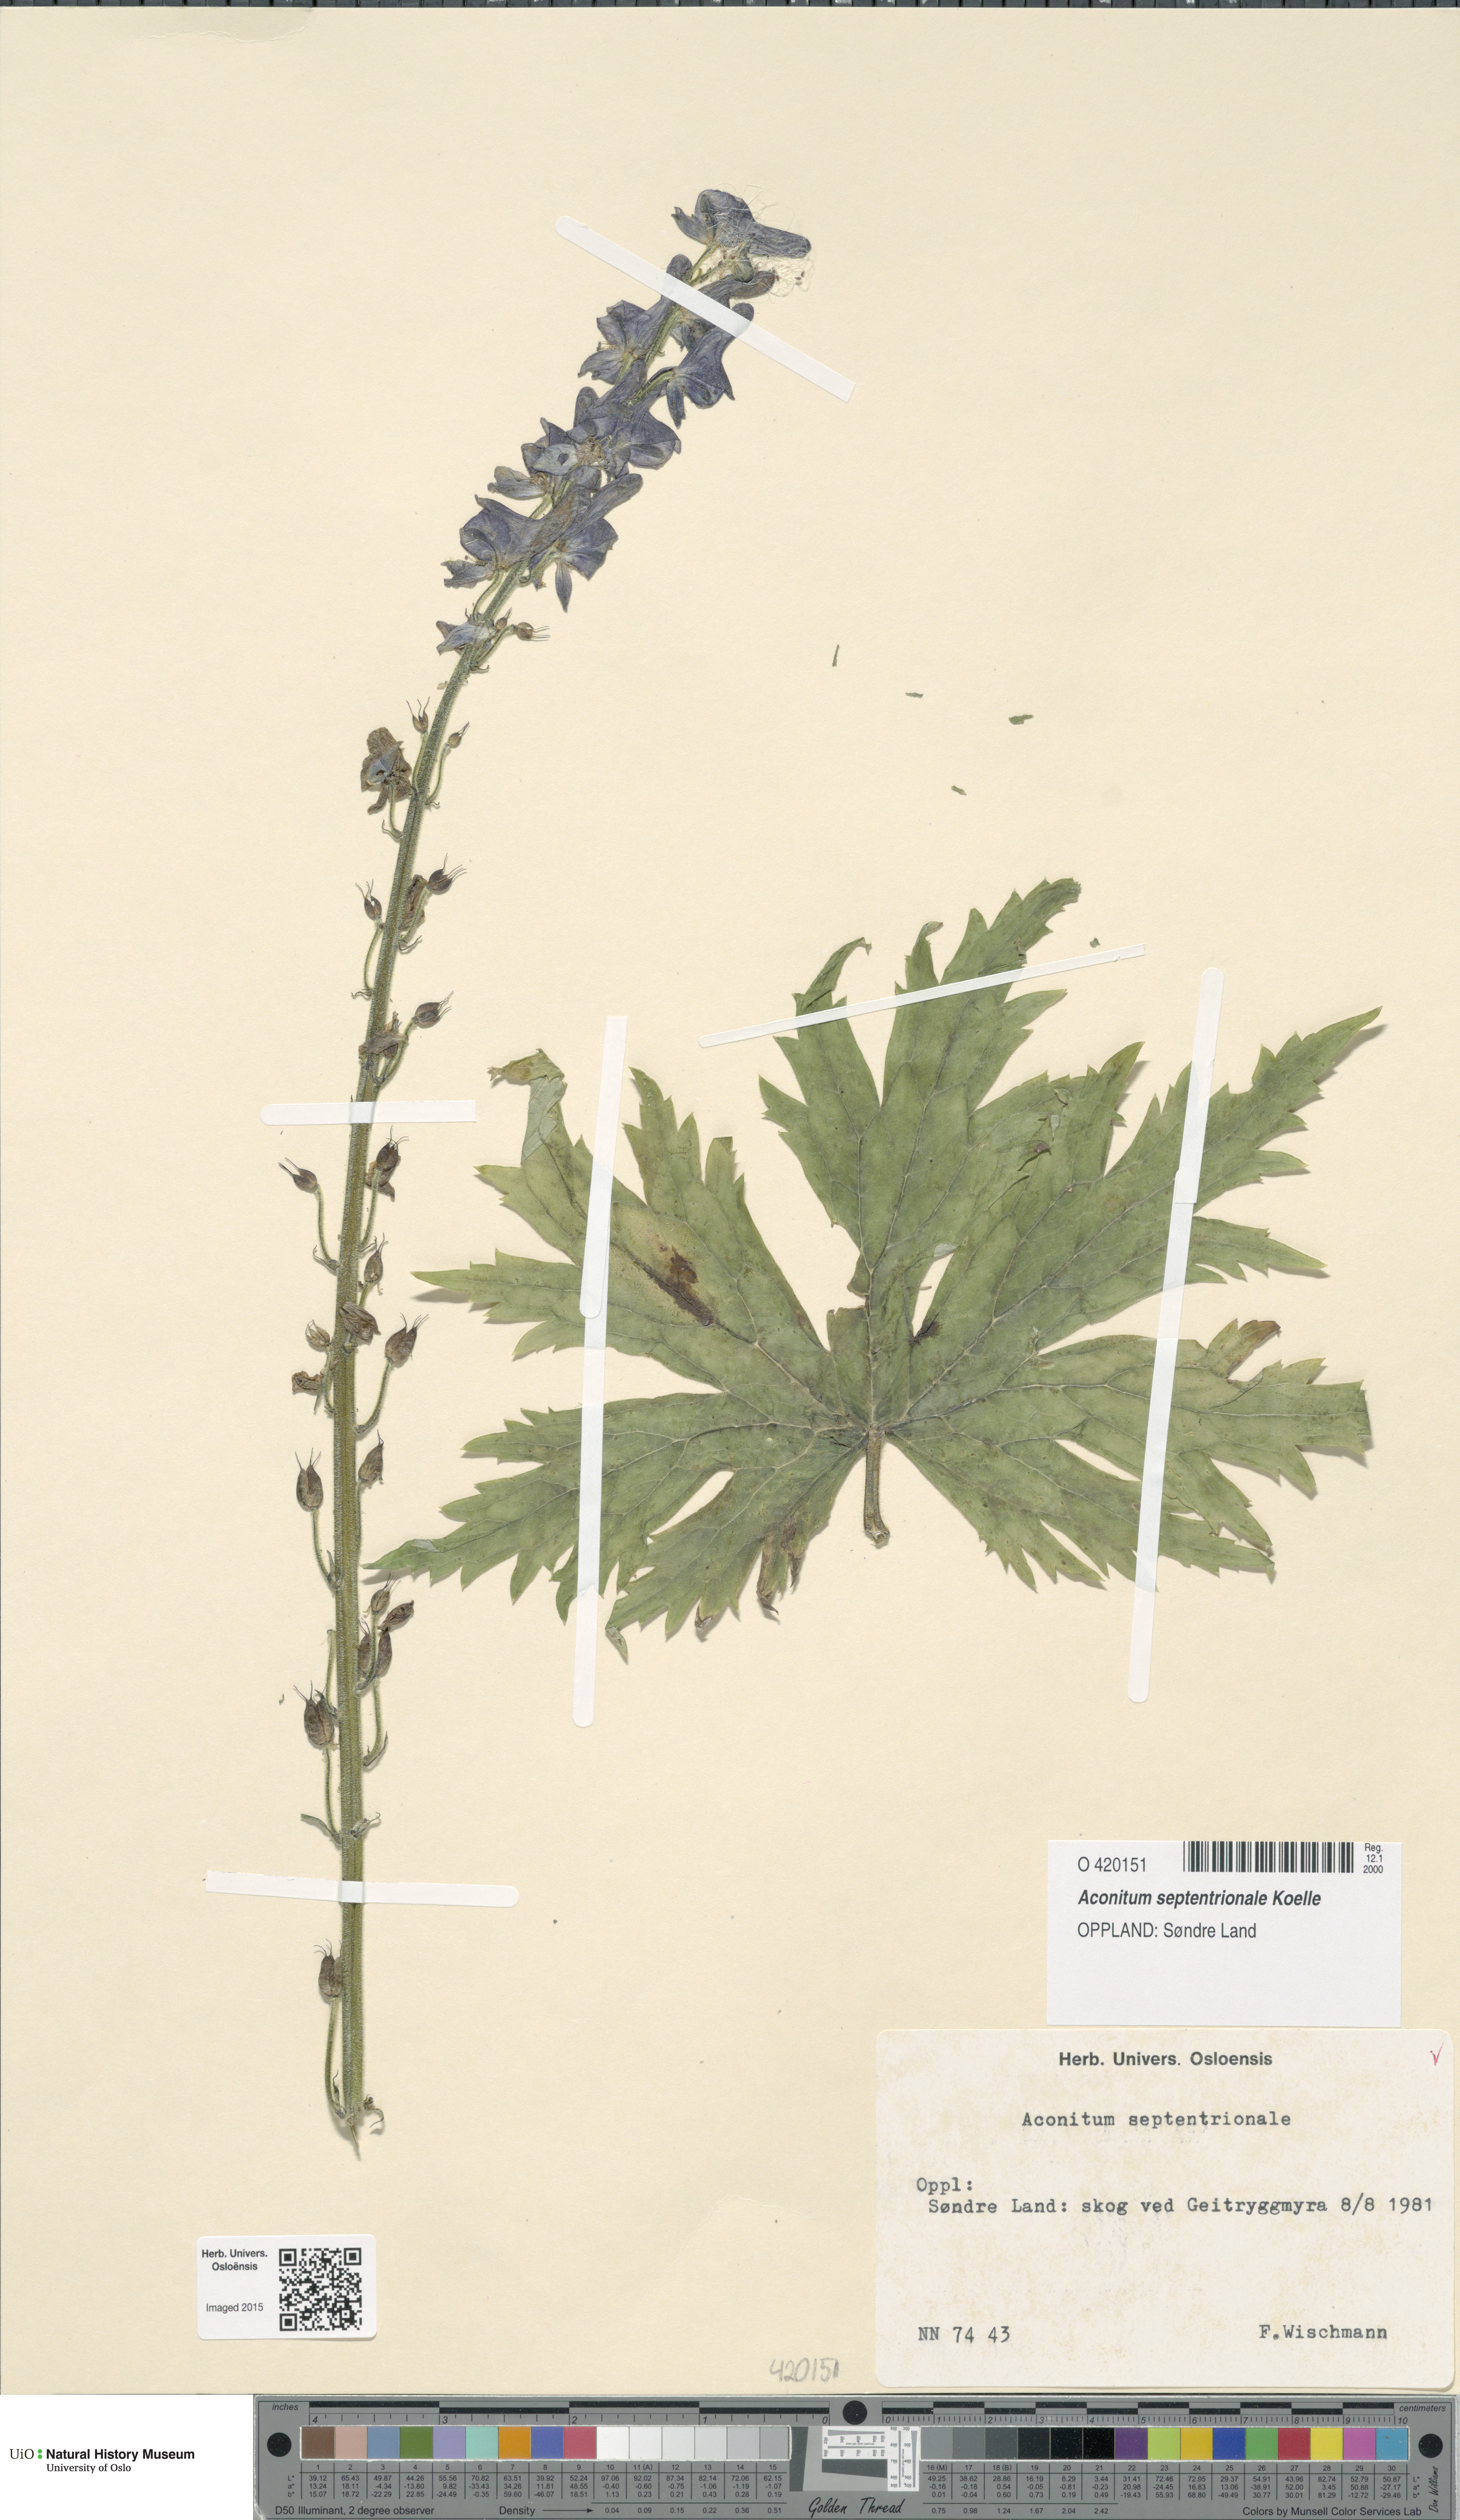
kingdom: Plantae
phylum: Tracheophyta
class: Magnoliopsida
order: Ranunculales
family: Ranunculaceae
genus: Aconitum
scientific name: Aconitum septentrionale
